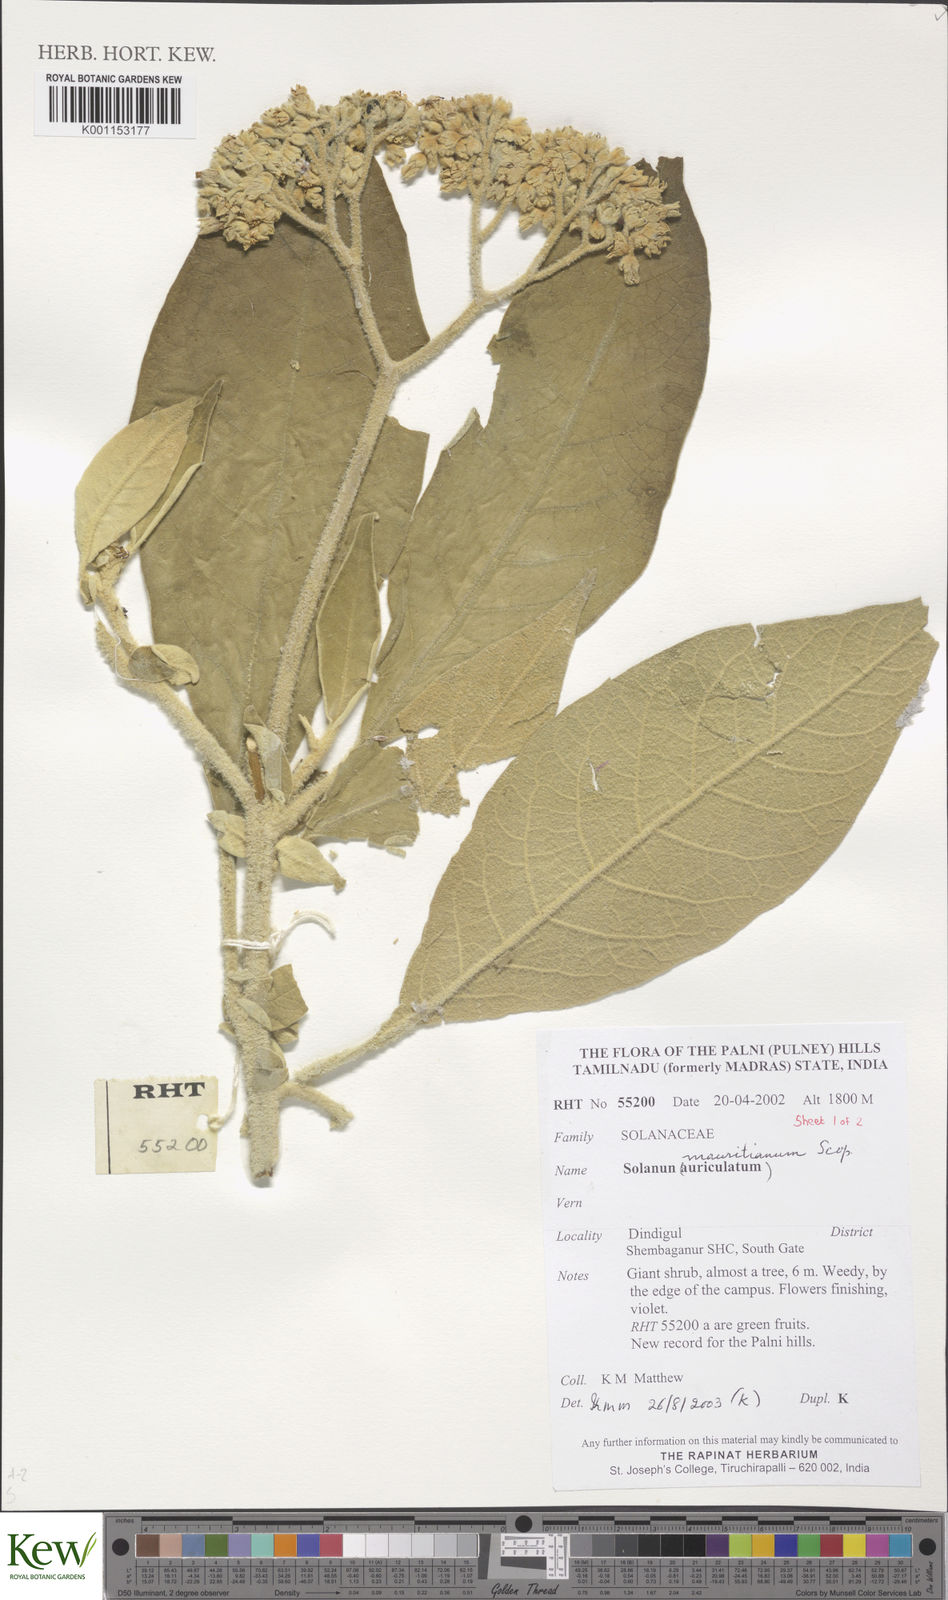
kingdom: Plantae
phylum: Tracheophyta
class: Magnoliopsida
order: Solanales
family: Solanaceae
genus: Solanum
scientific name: Solanum mauritianum
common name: Earleaf nightshade
